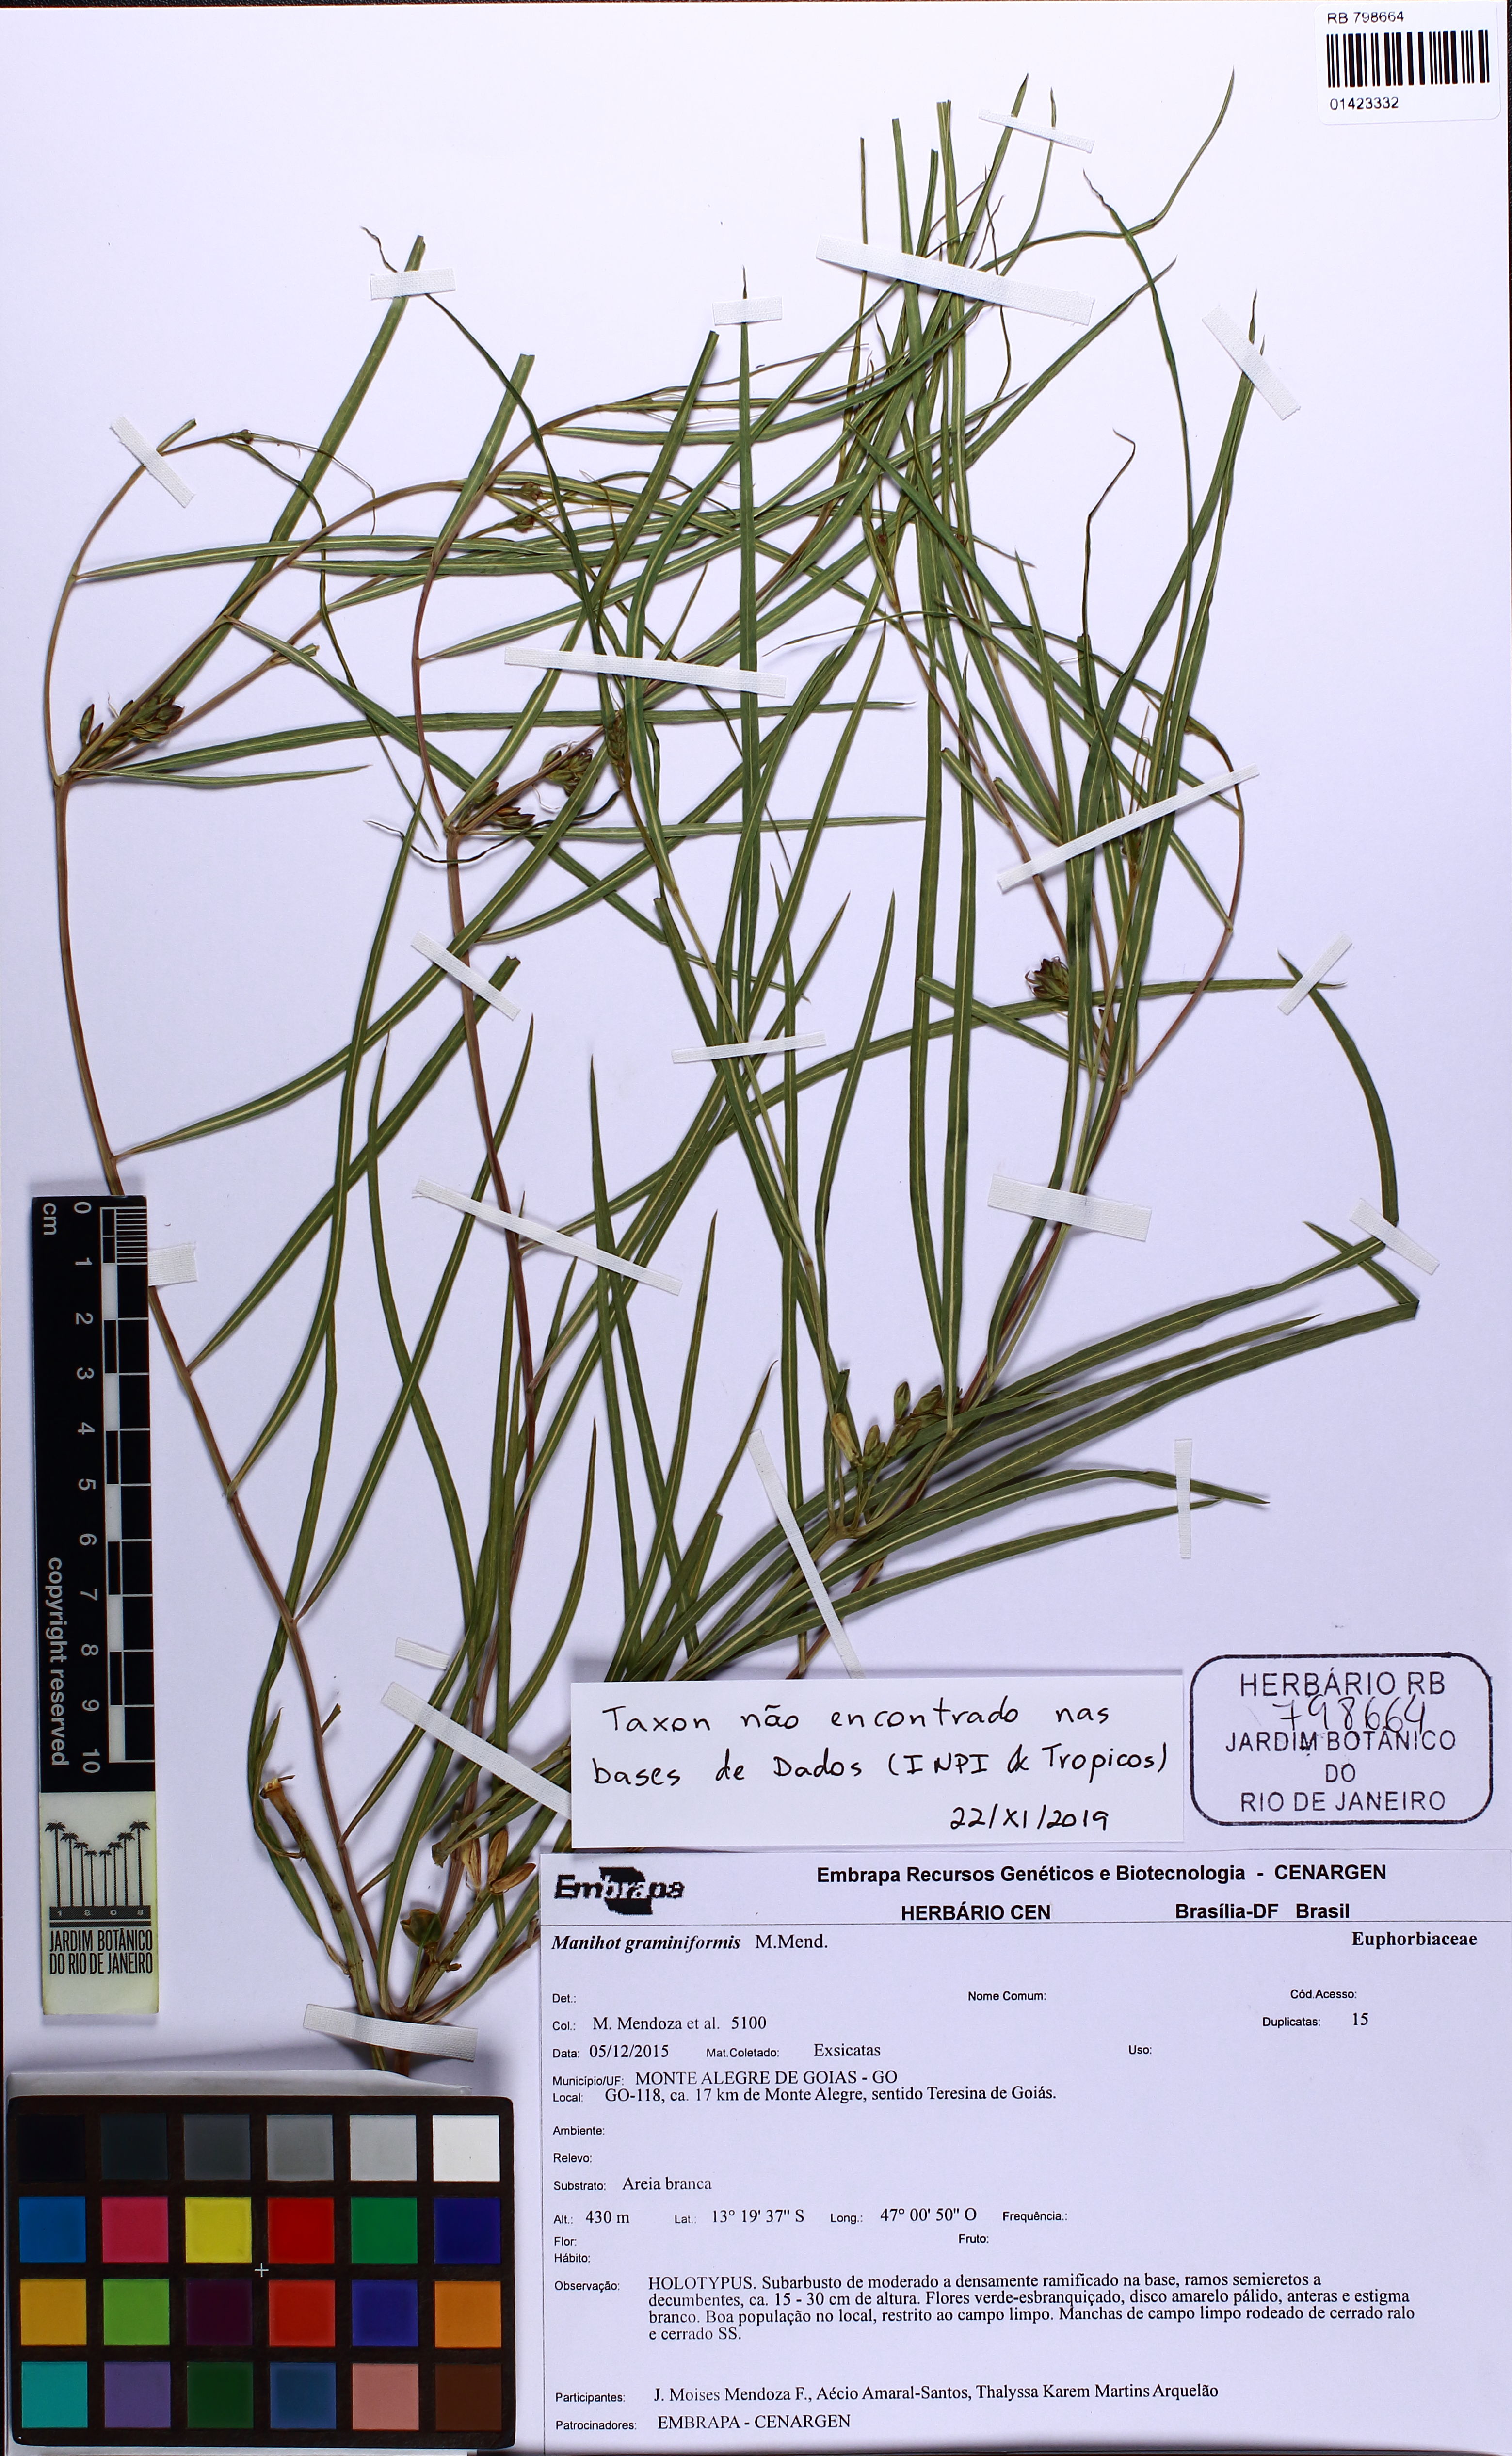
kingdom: Plantae
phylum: Tracheophyta
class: Magnoliopsida
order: Malpighiales
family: Euphorbiaceae
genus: Manihot
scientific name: Manihot
